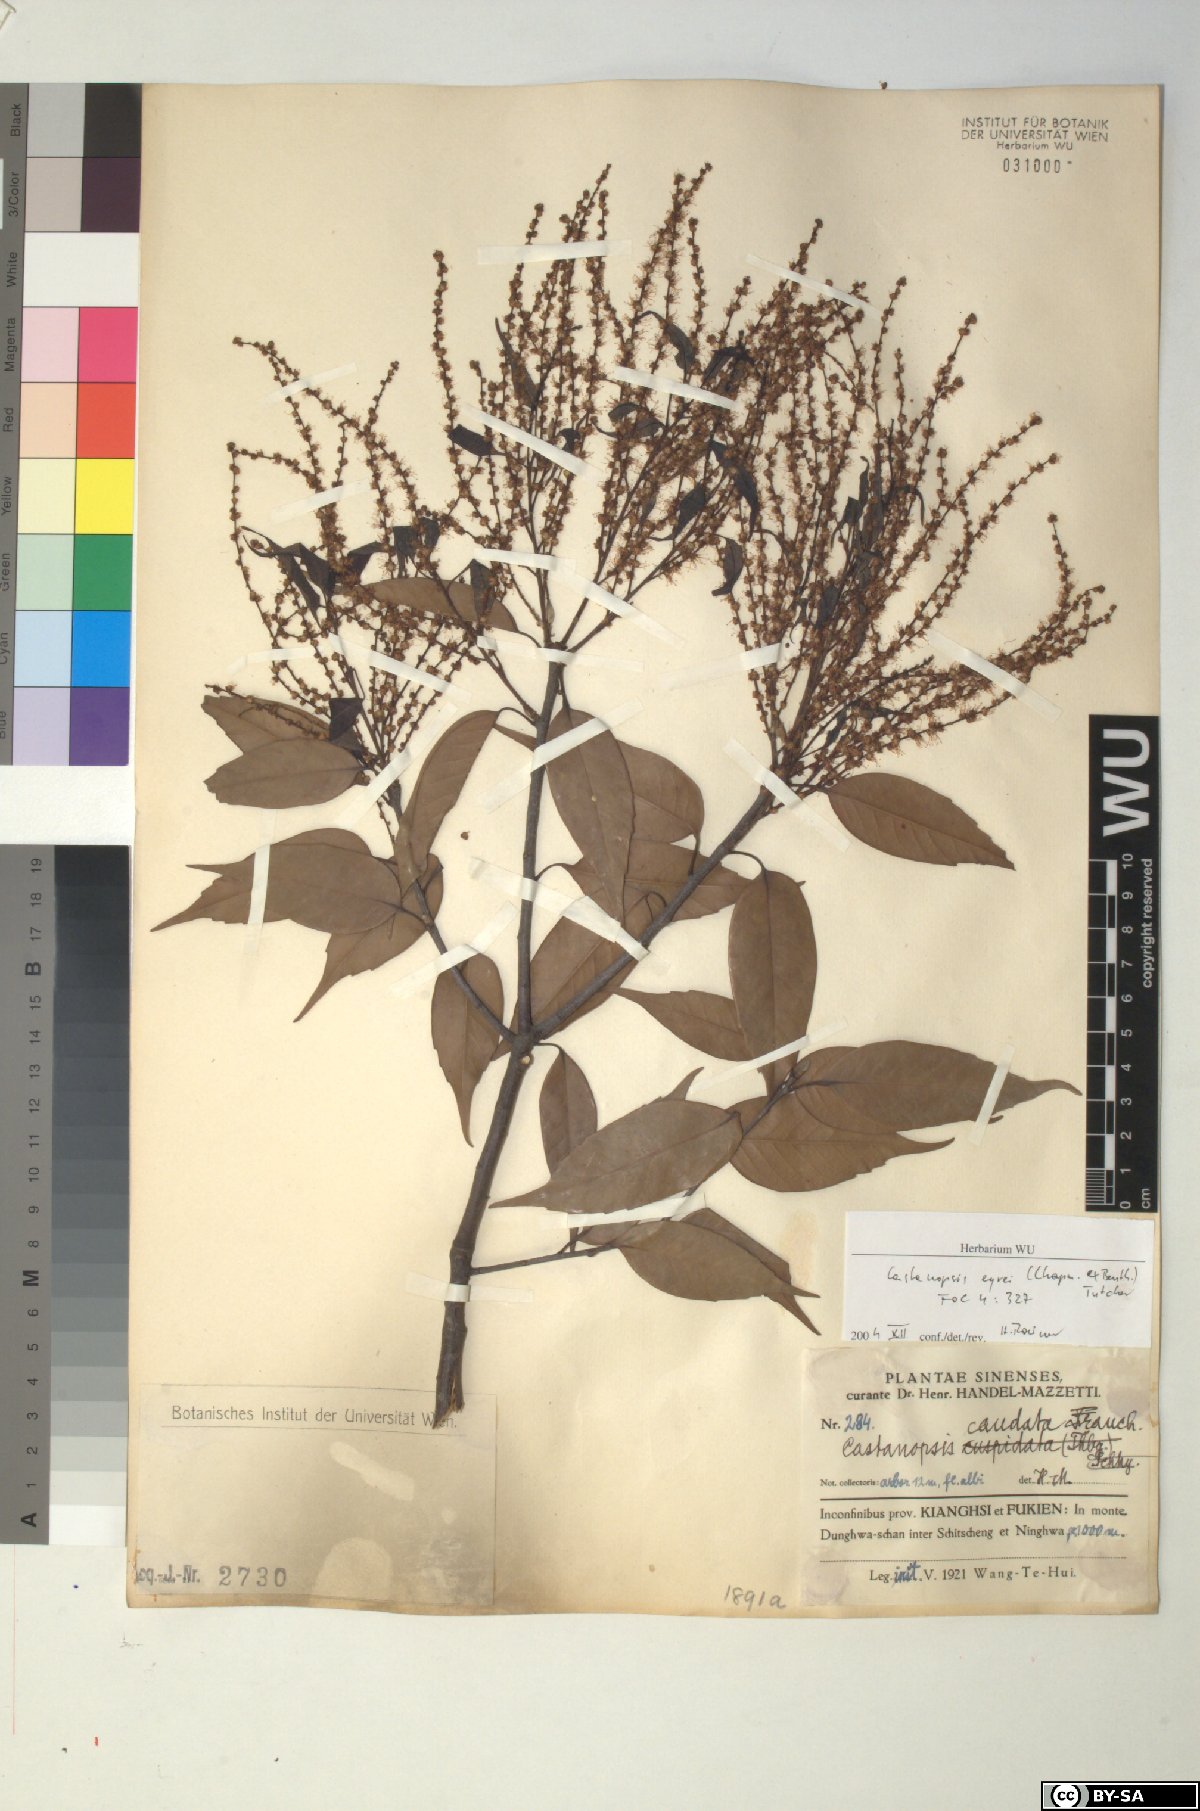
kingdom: Plantae
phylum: Tracheophyta
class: Magnoliopsida
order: Fagales
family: Fagaceae
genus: Castanopsis
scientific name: Castanopsis eyrei
